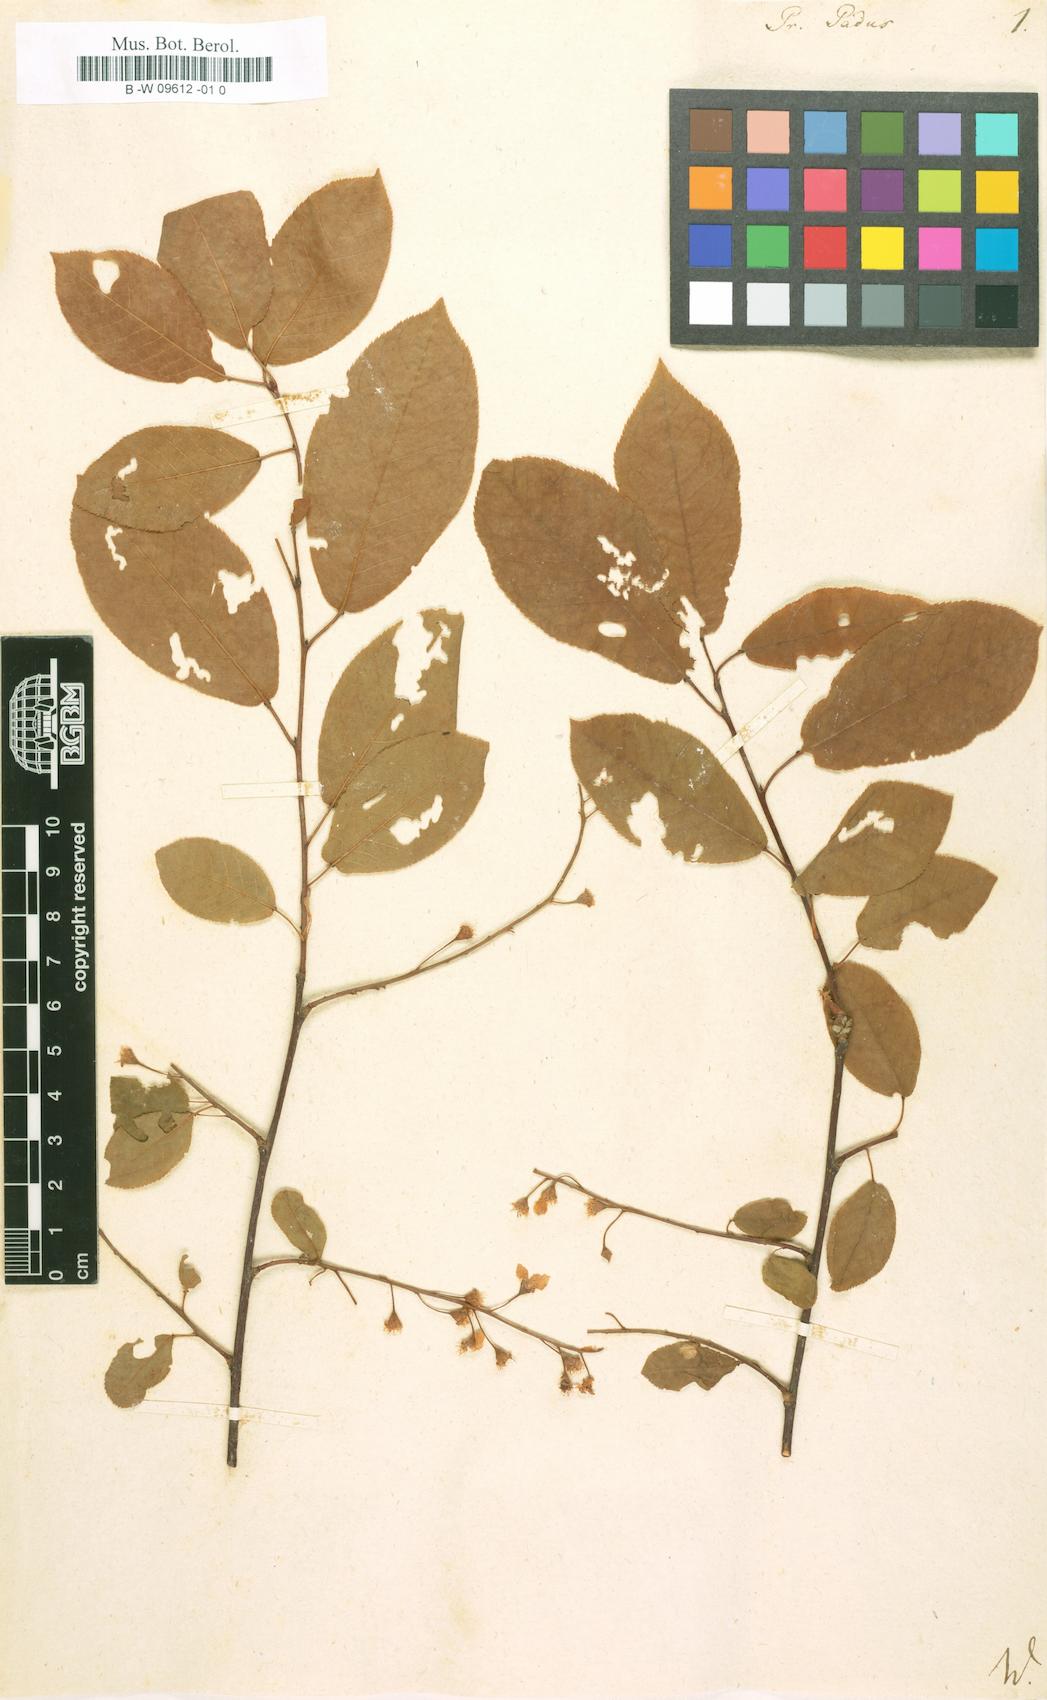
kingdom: Plantae
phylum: Tracheophyta
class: Magnoliopsida
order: Rosales
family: Rosaceae
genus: Prunus
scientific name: Prunus padus
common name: Bird cherry
